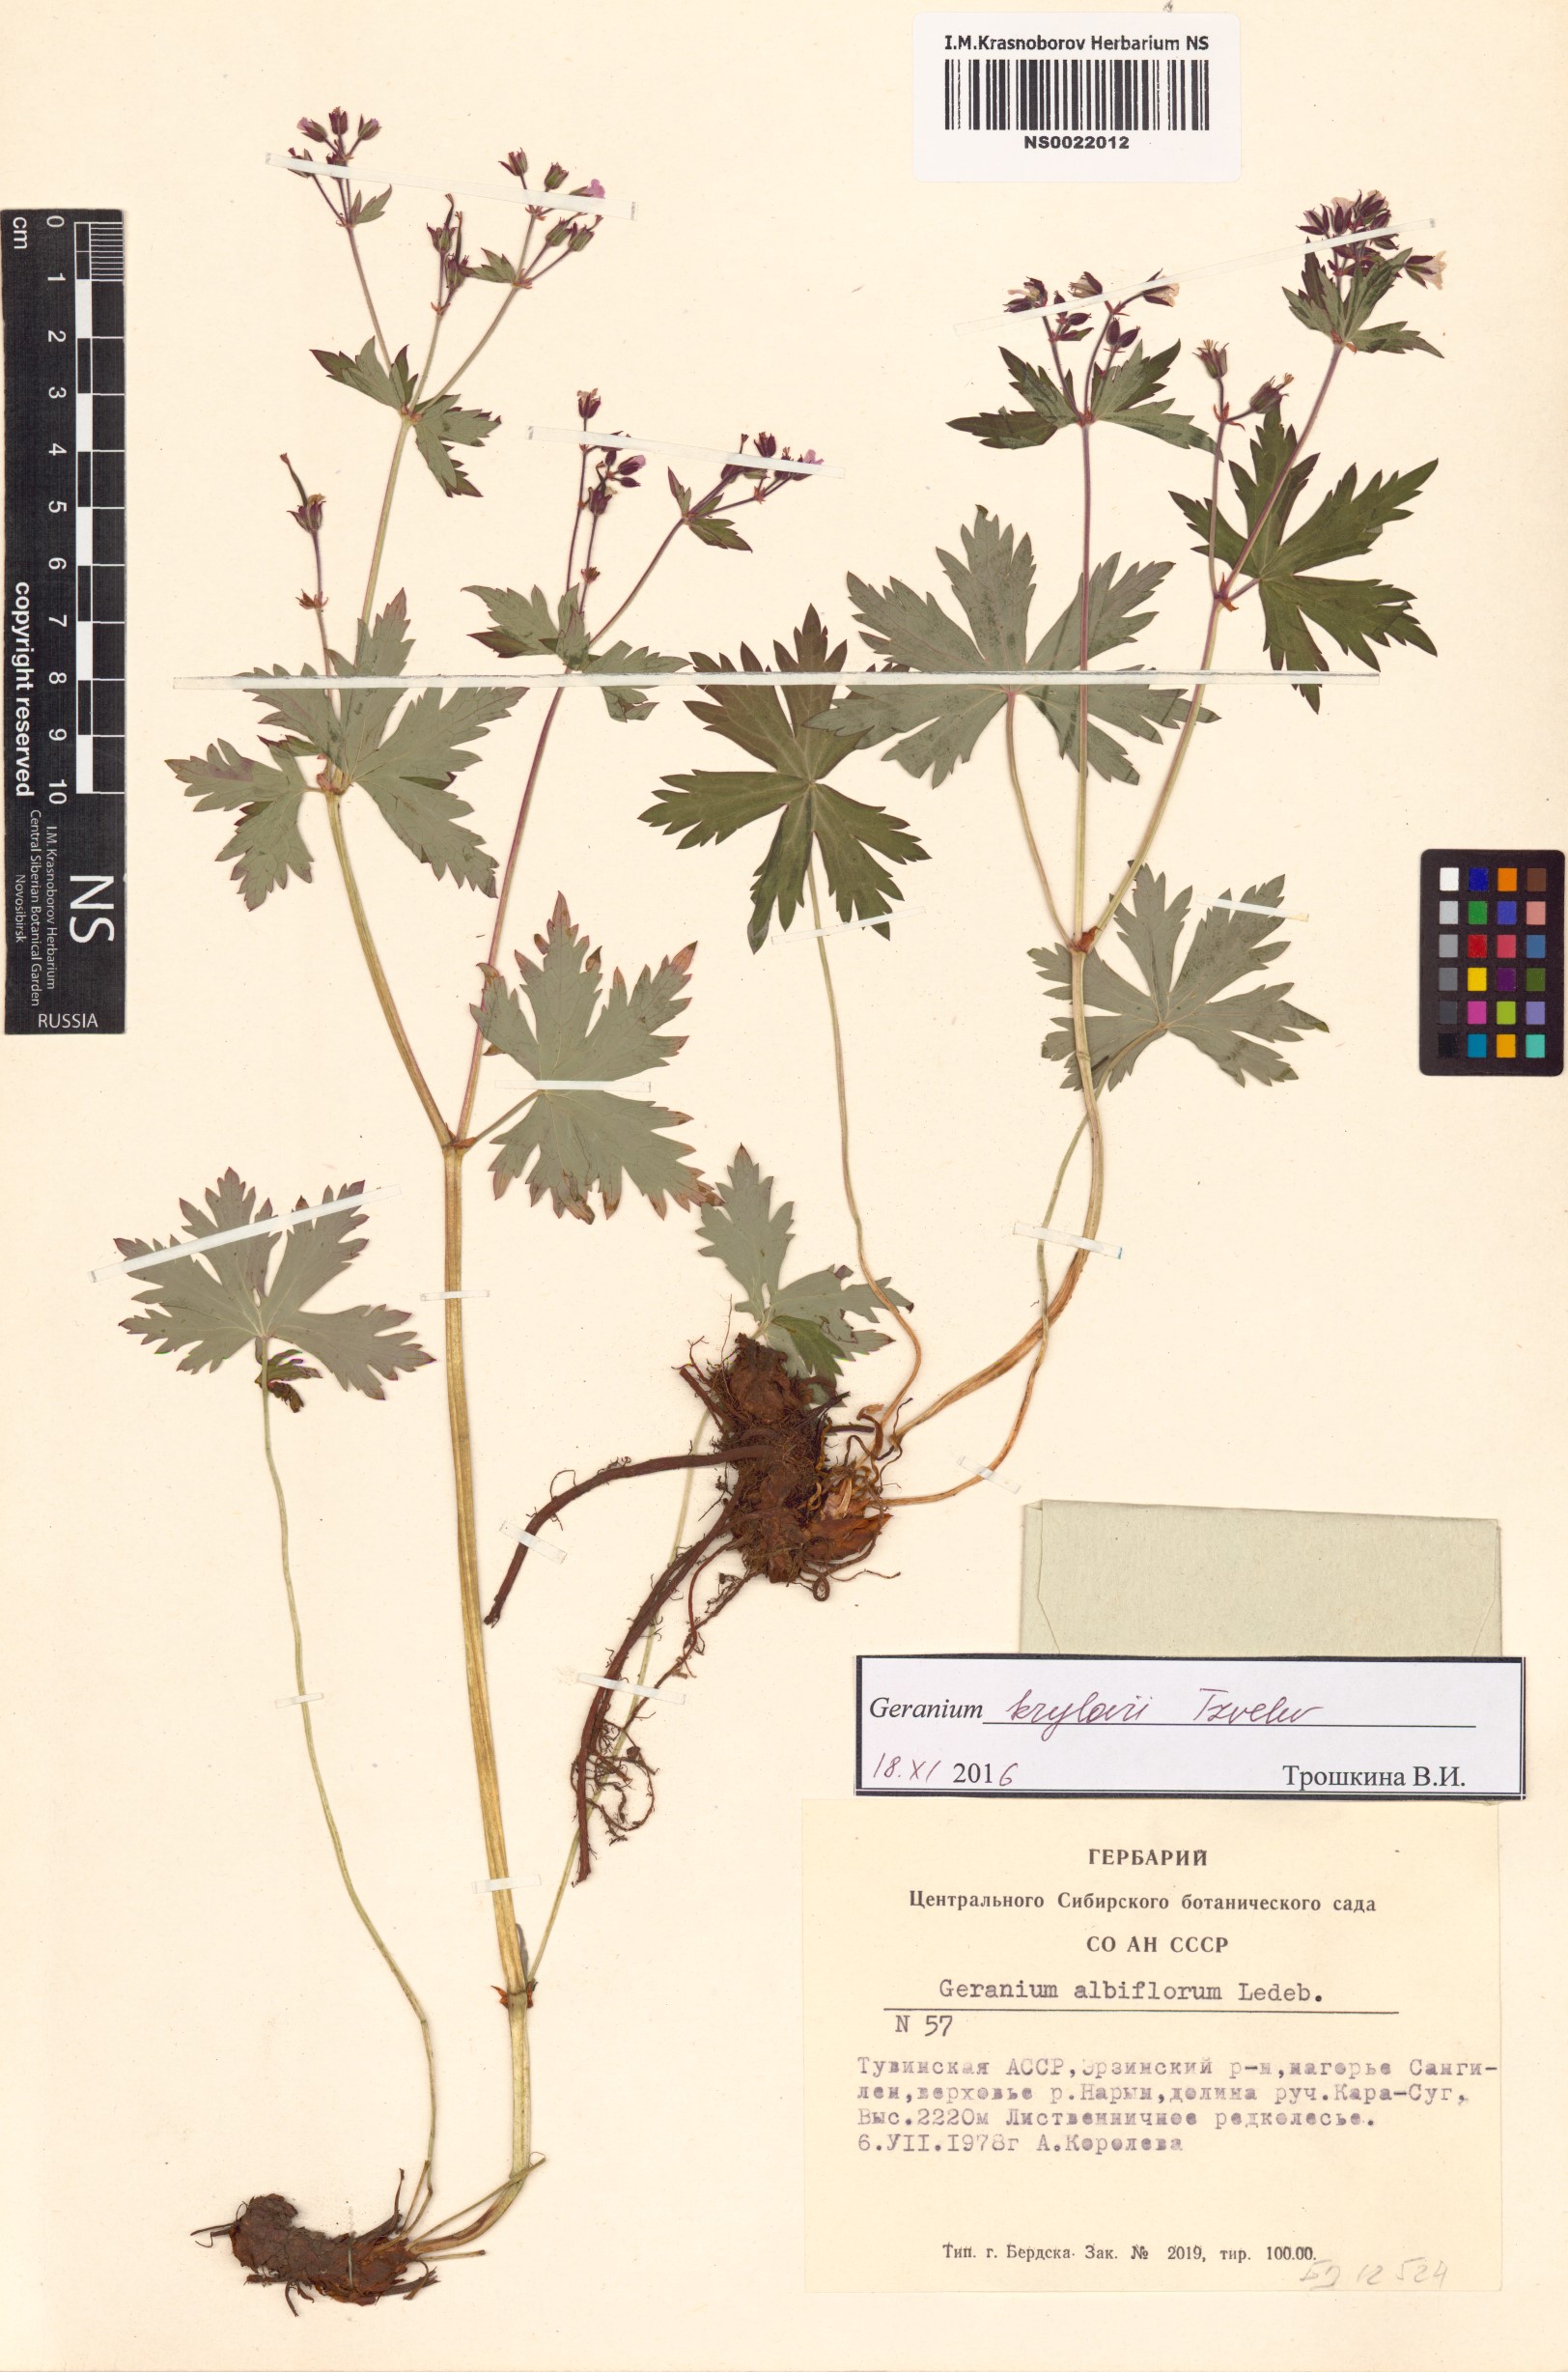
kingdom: Plantae
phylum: Tracheophyta
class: Magnoliopsida
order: Geraniales
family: Geraniaceae
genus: Geranium
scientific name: Geranium sylvaticum
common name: Wood crane's-bill
